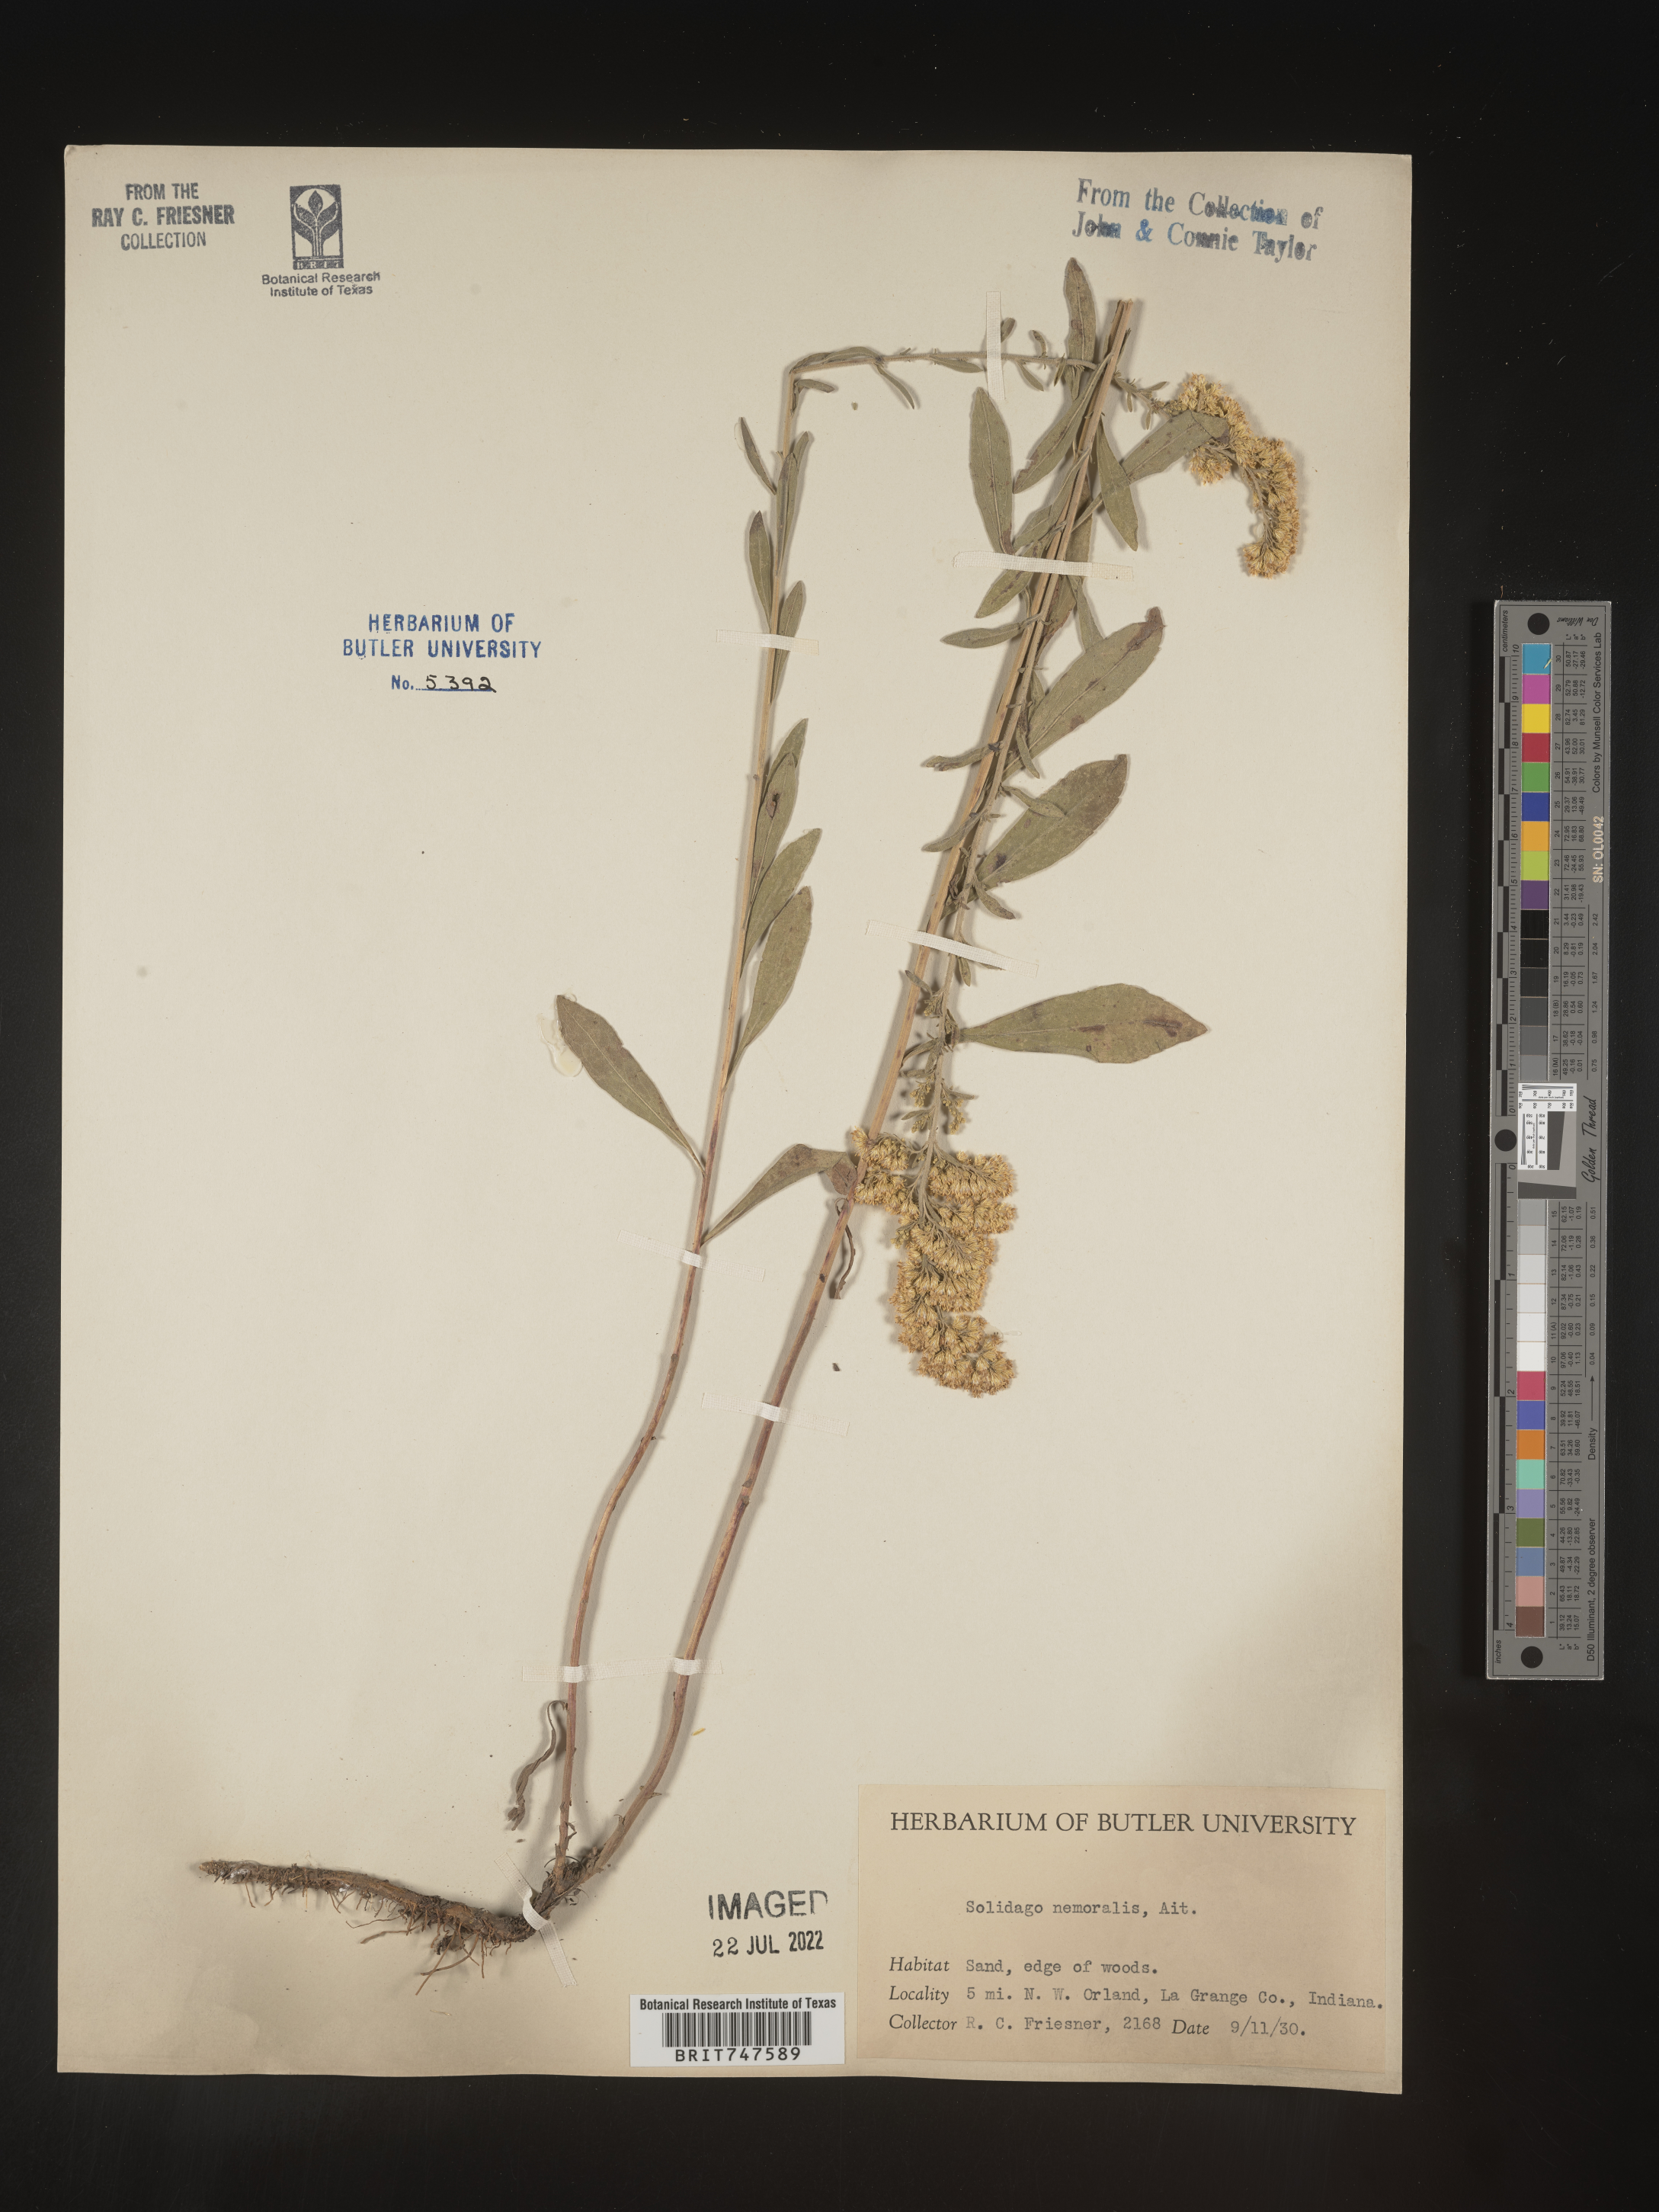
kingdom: Plantae
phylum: Tracheophyta
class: Magnoliopsida
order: Asterales
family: Asteraceae
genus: Solidago
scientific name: Solidago nemoralis
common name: Grey goldenrod
